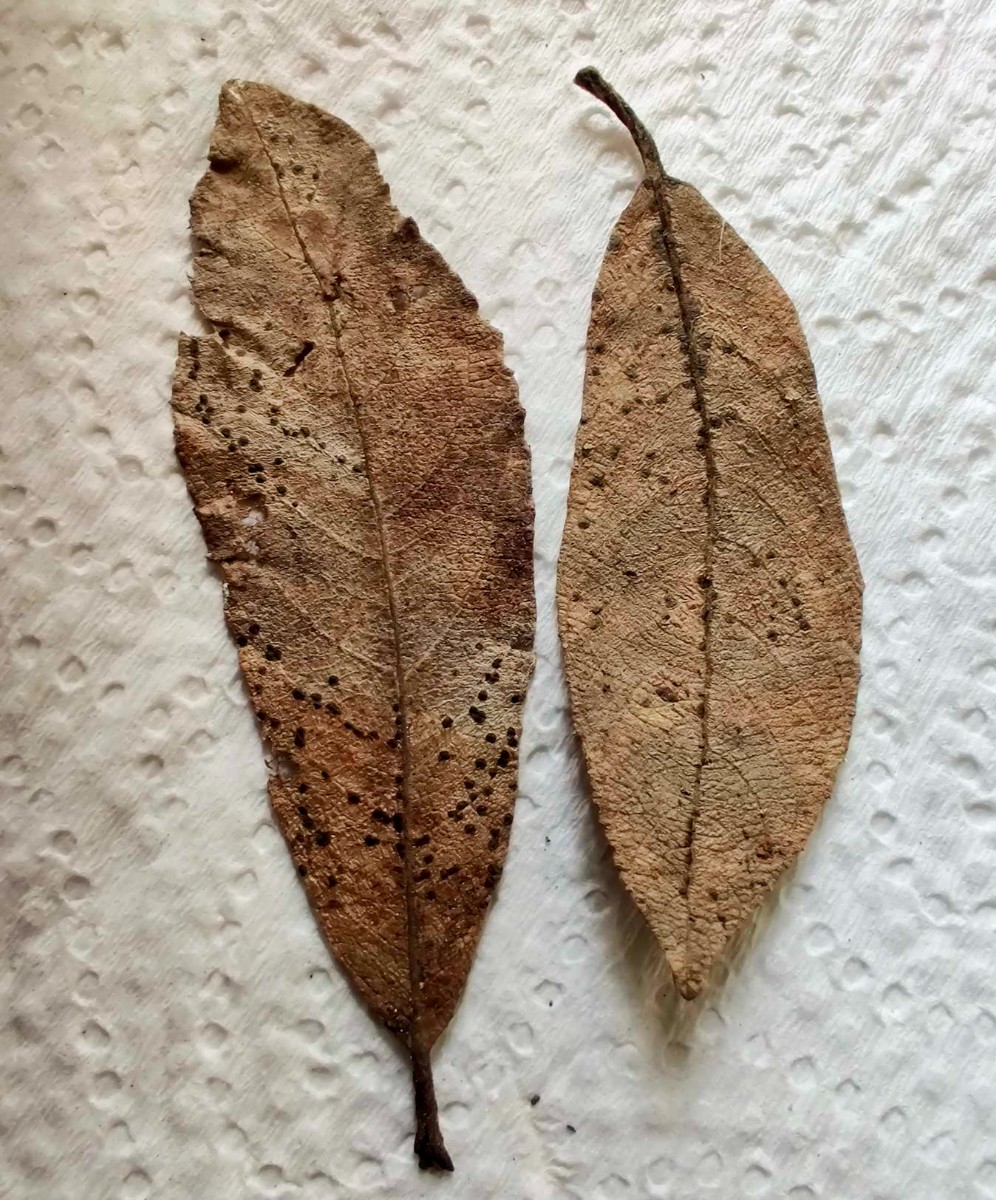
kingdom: Fungi
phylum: Ascomycota
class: Sordariomycetes
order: Diaporthales
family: Gnomoniaceae
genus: Linospora
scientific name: Linospora saligna
